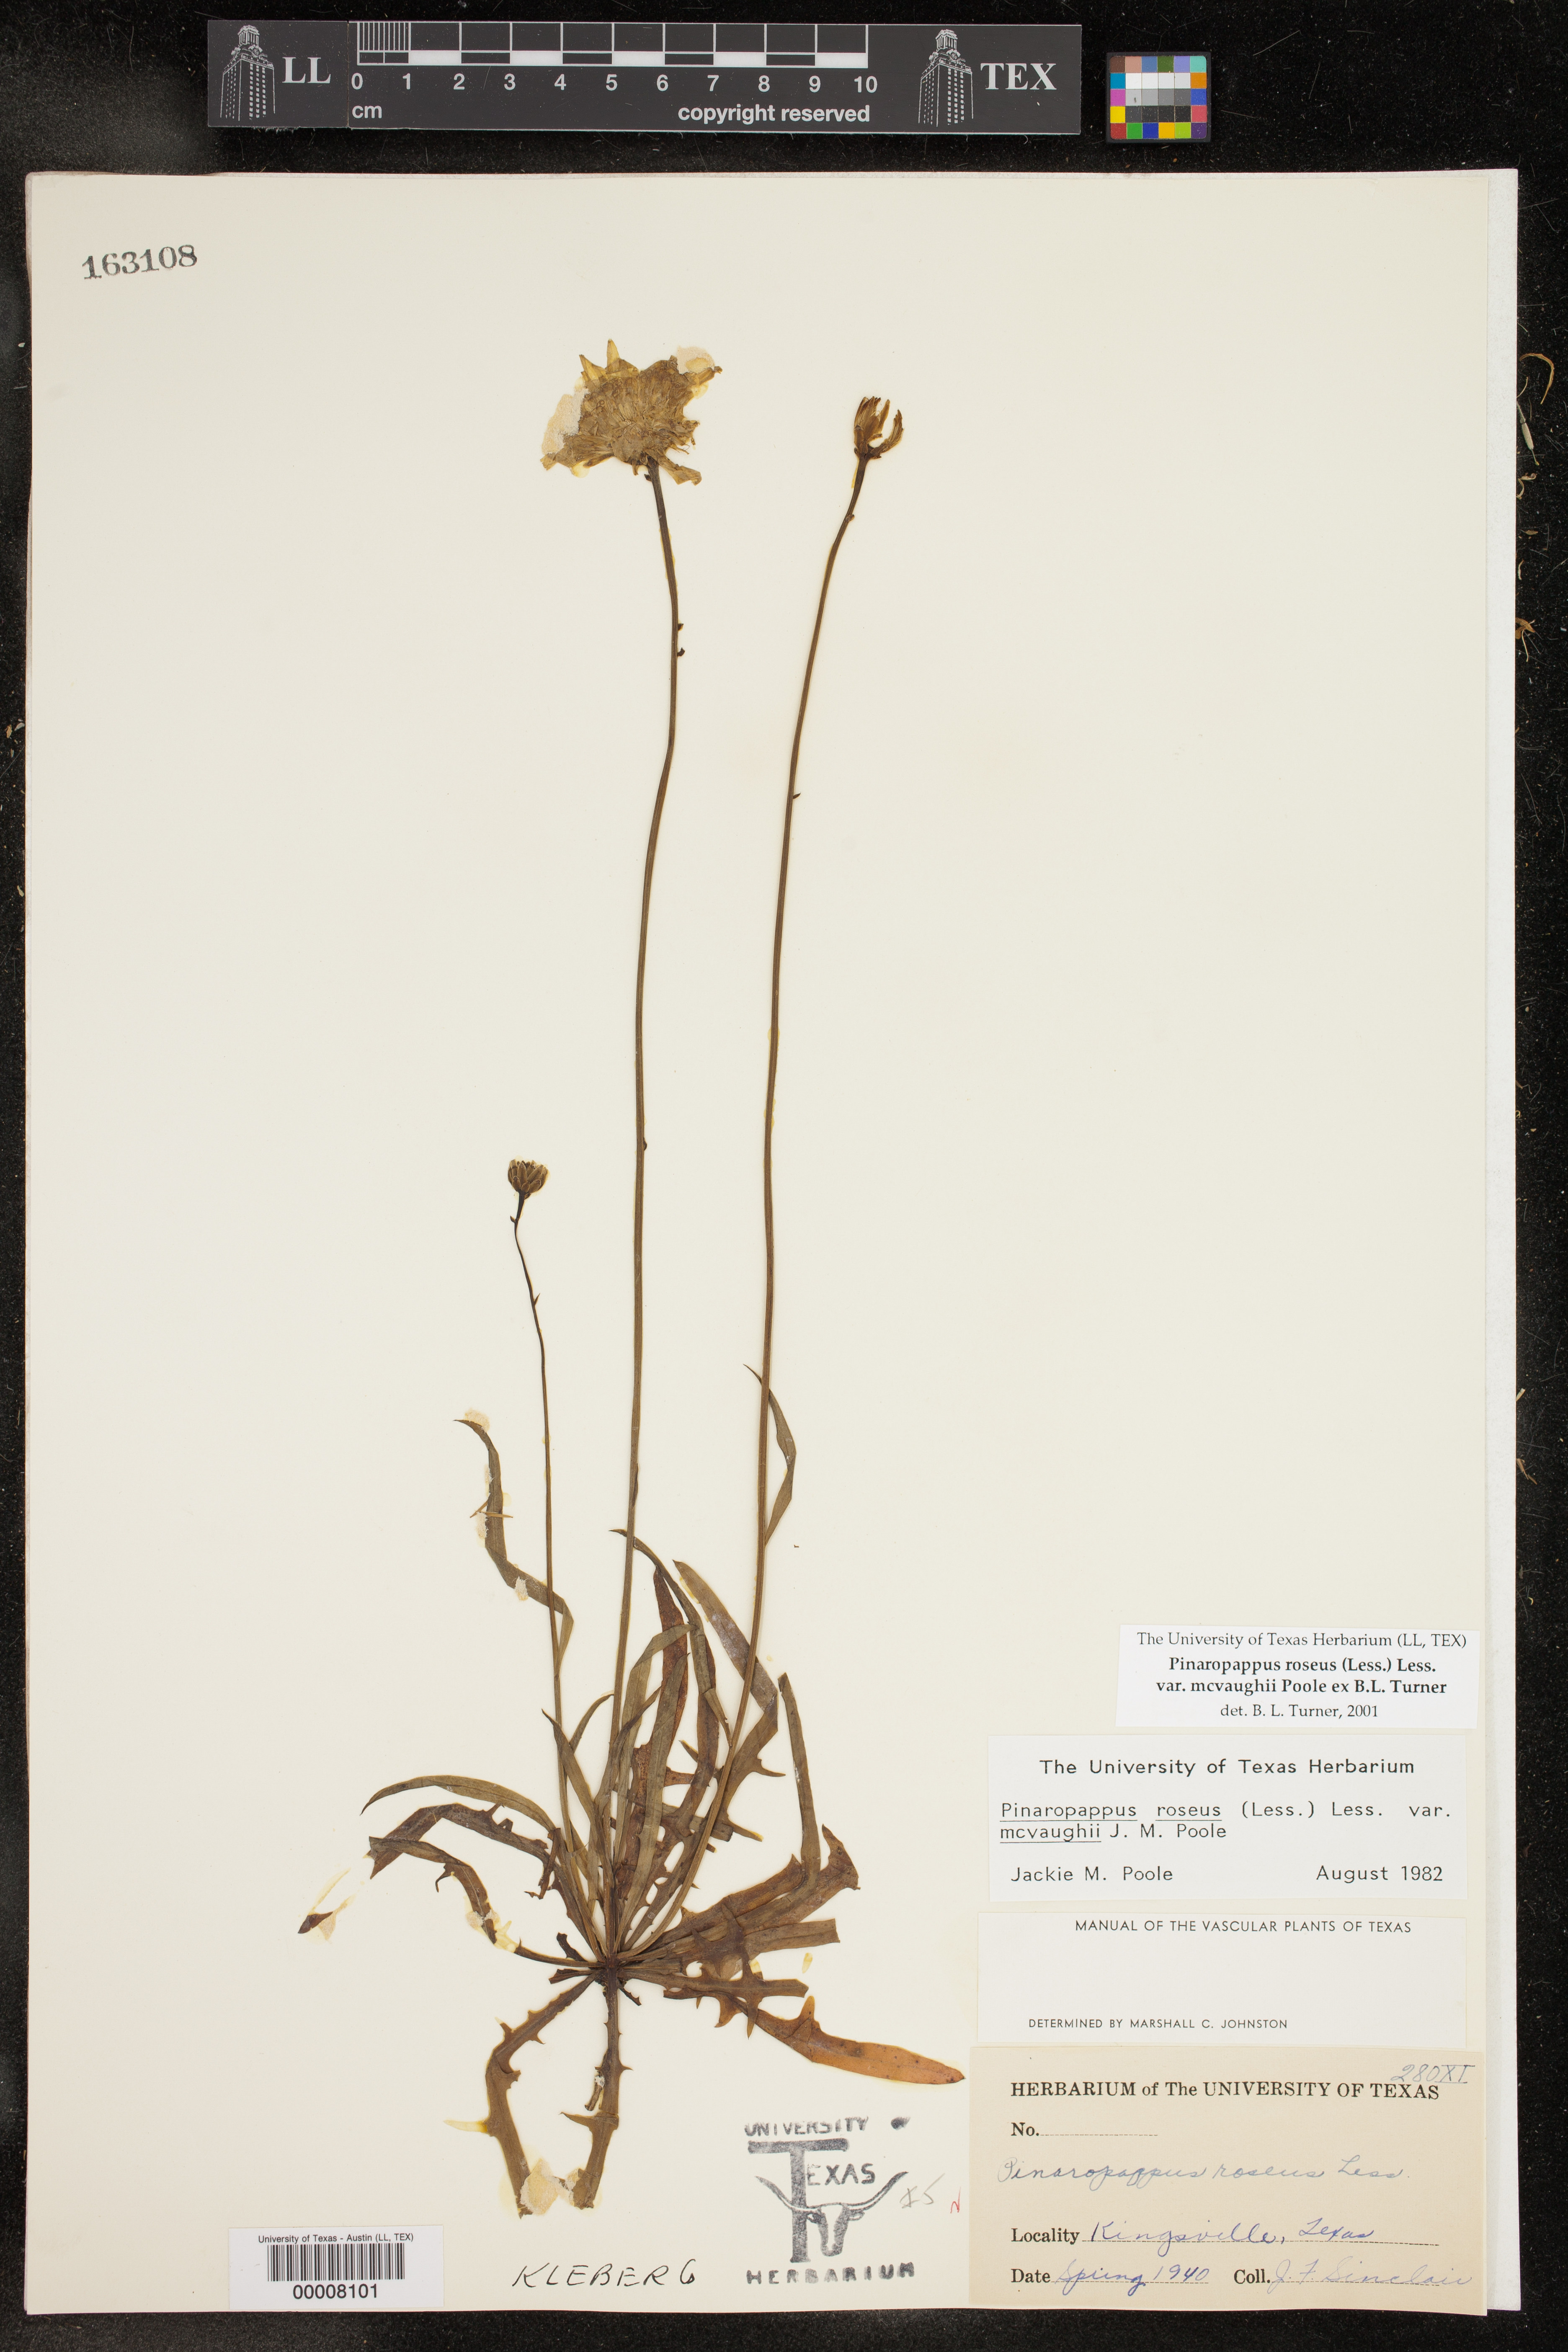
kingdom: Plantae
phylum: Tracheophyta
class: Magnoliopsida
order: Asterales
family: Asteraceae
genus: Pinaropappus
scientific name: Pinaropappus roseus
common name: Rock-lettuce
